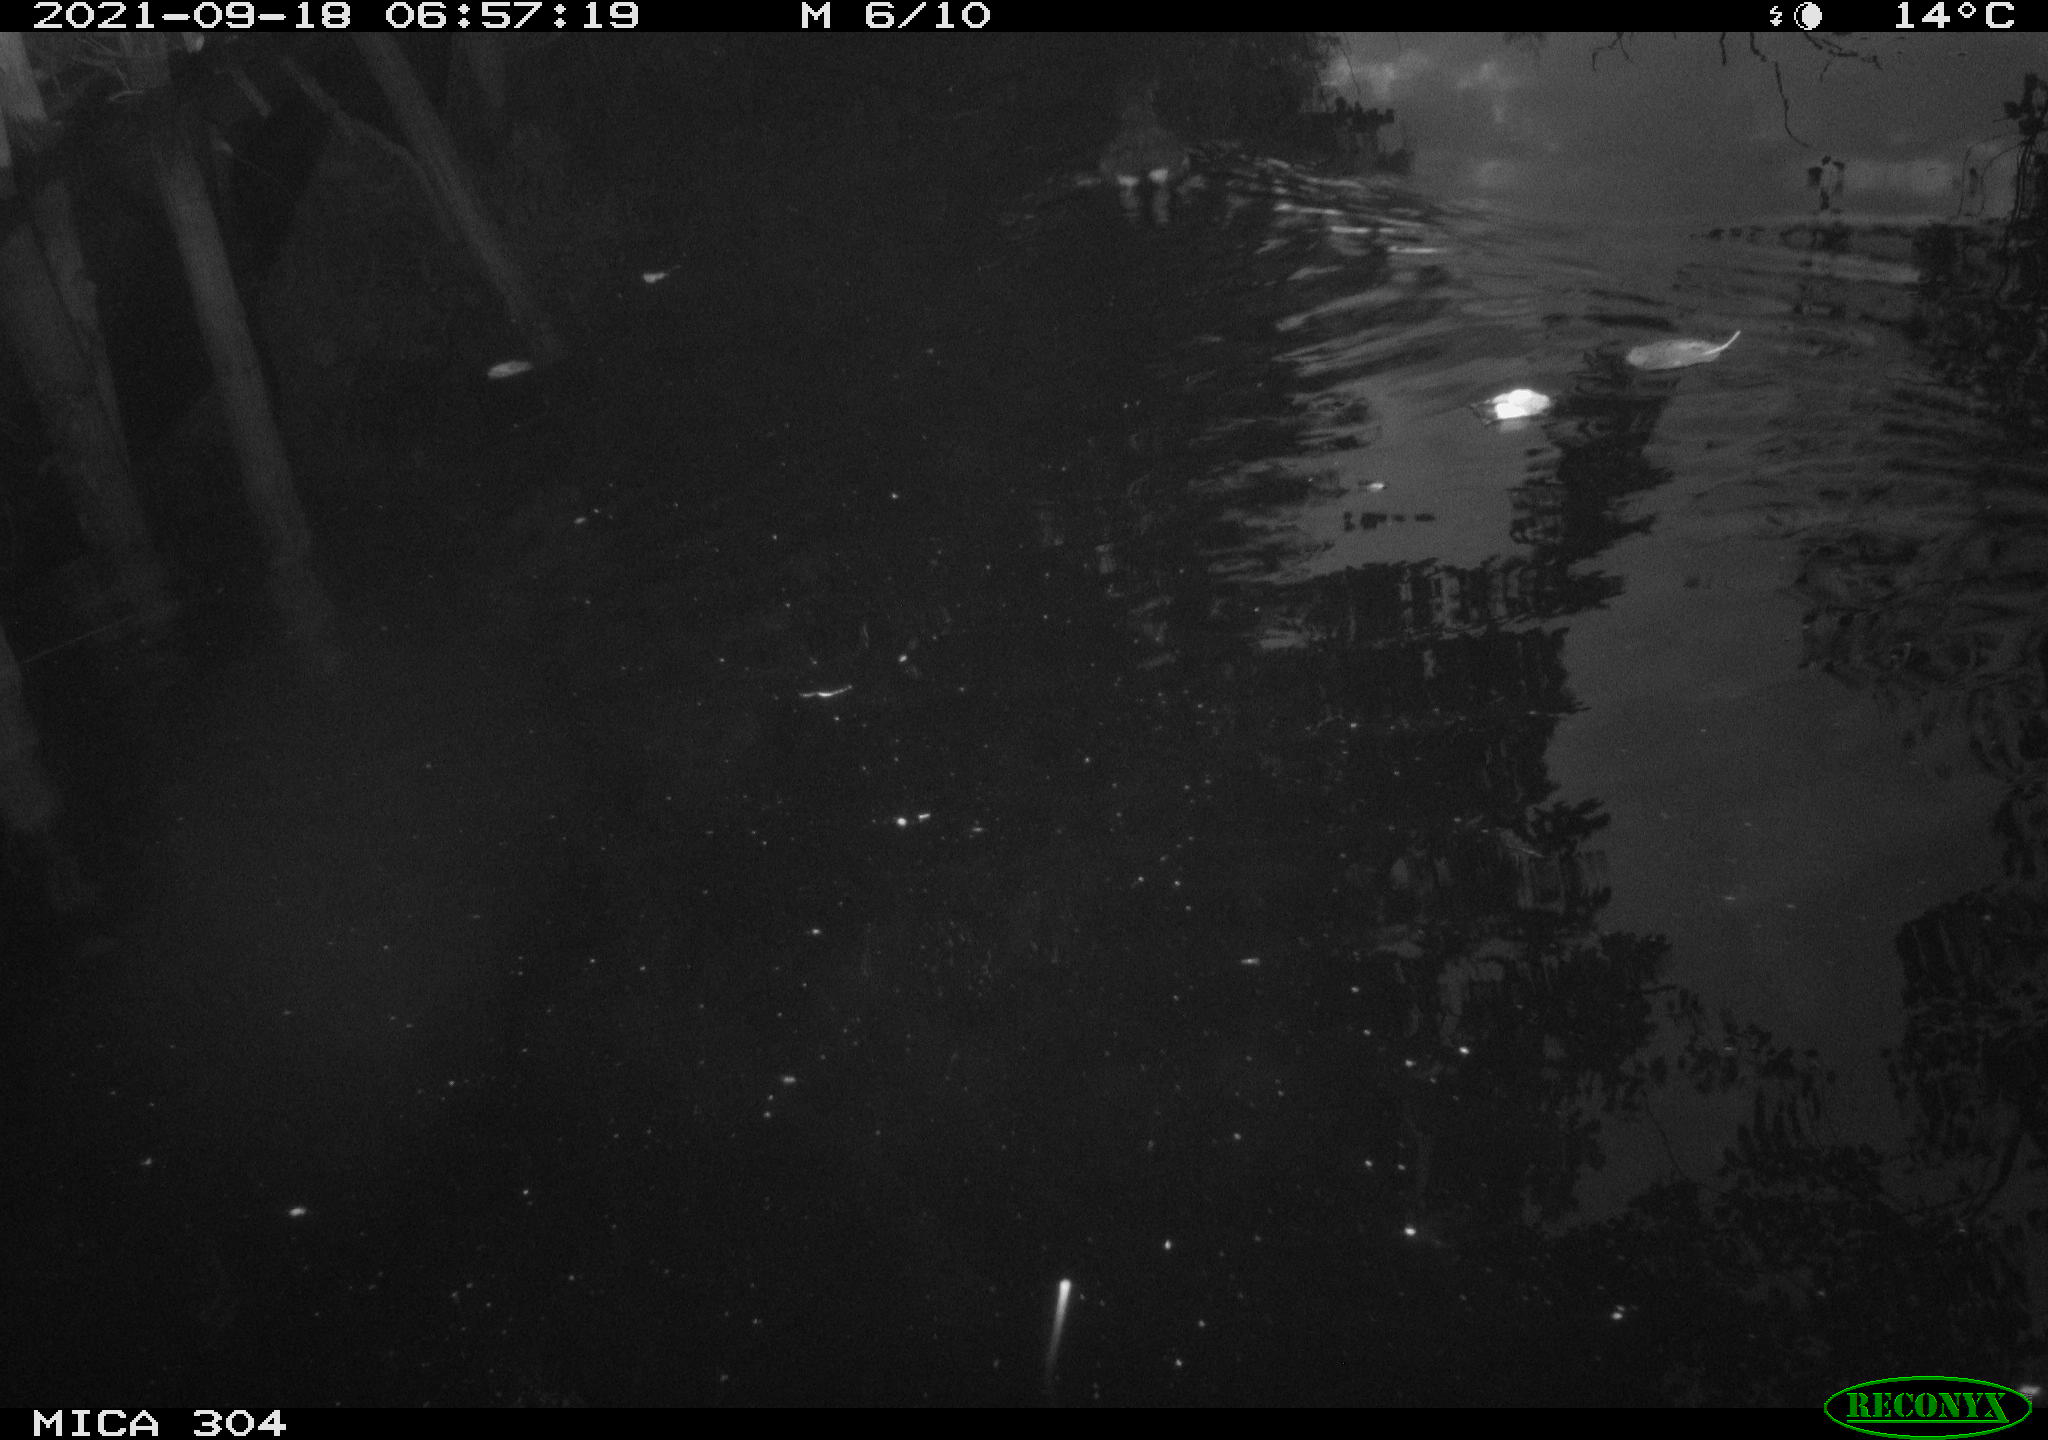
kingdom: Animalia
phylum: Chordata
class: Aves
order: Anseriformes
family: Anatidae
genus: Anas
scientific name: Anas platyrhynchos
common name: Mallard
